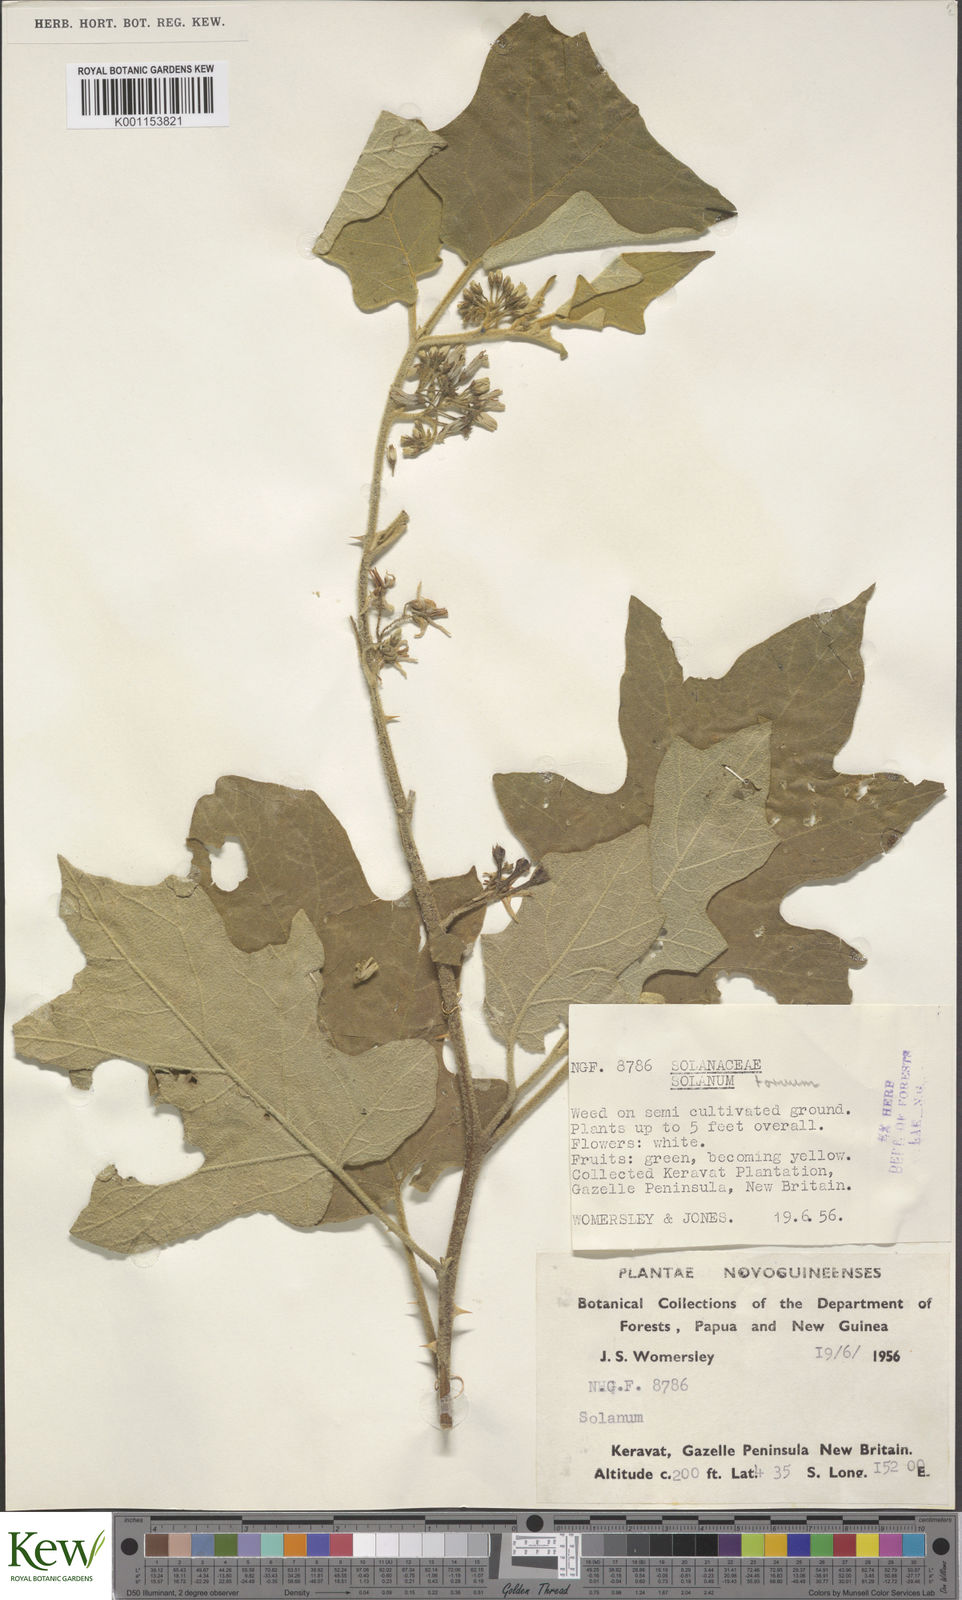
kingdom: Plantae
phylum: Tracheophyta
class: Magnoliopsida
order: Solanales
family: Solanaceae
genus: Solanum
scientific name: Solanum torvum
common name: Turkey berry
